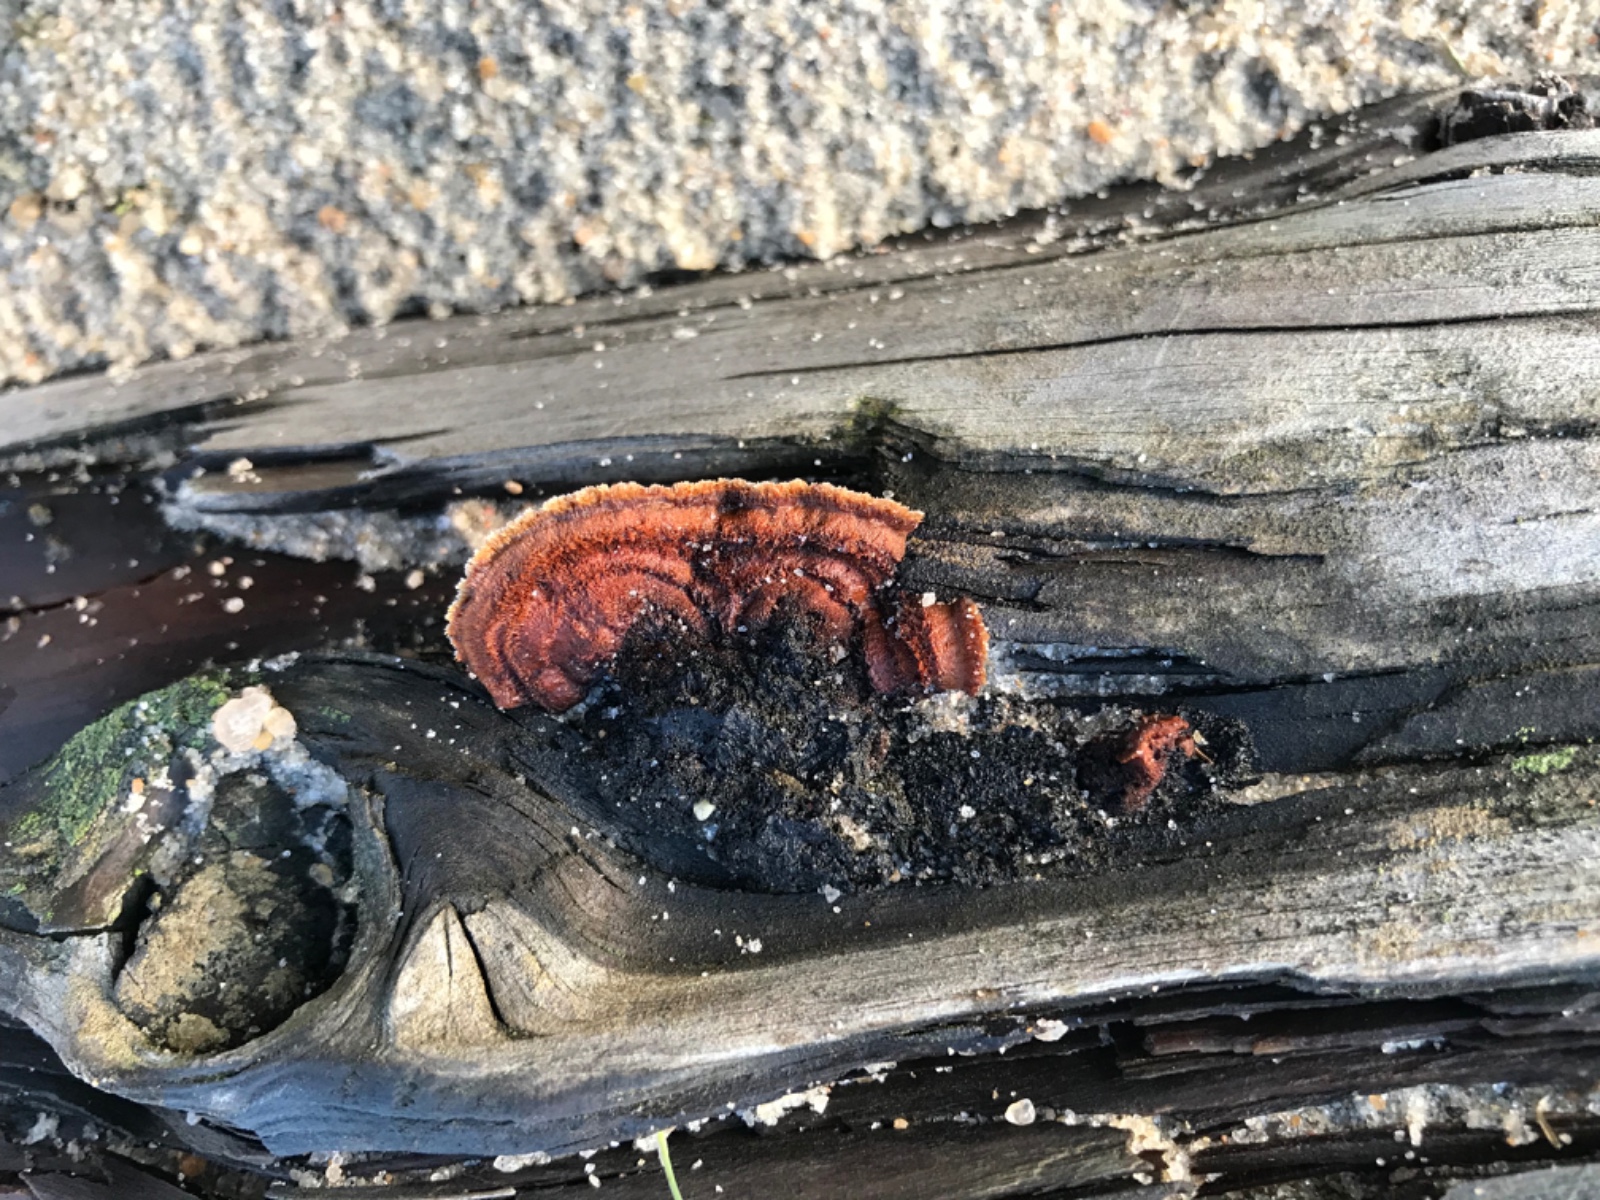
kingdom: Fungi
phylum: Basidiomycota
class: Agaricomycetes
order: Gloeophyllales
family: Gloeophyllaceae
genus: Gloeophyllum
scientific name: Gloeophyllum sepiarium
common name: fyrre-korkhat
